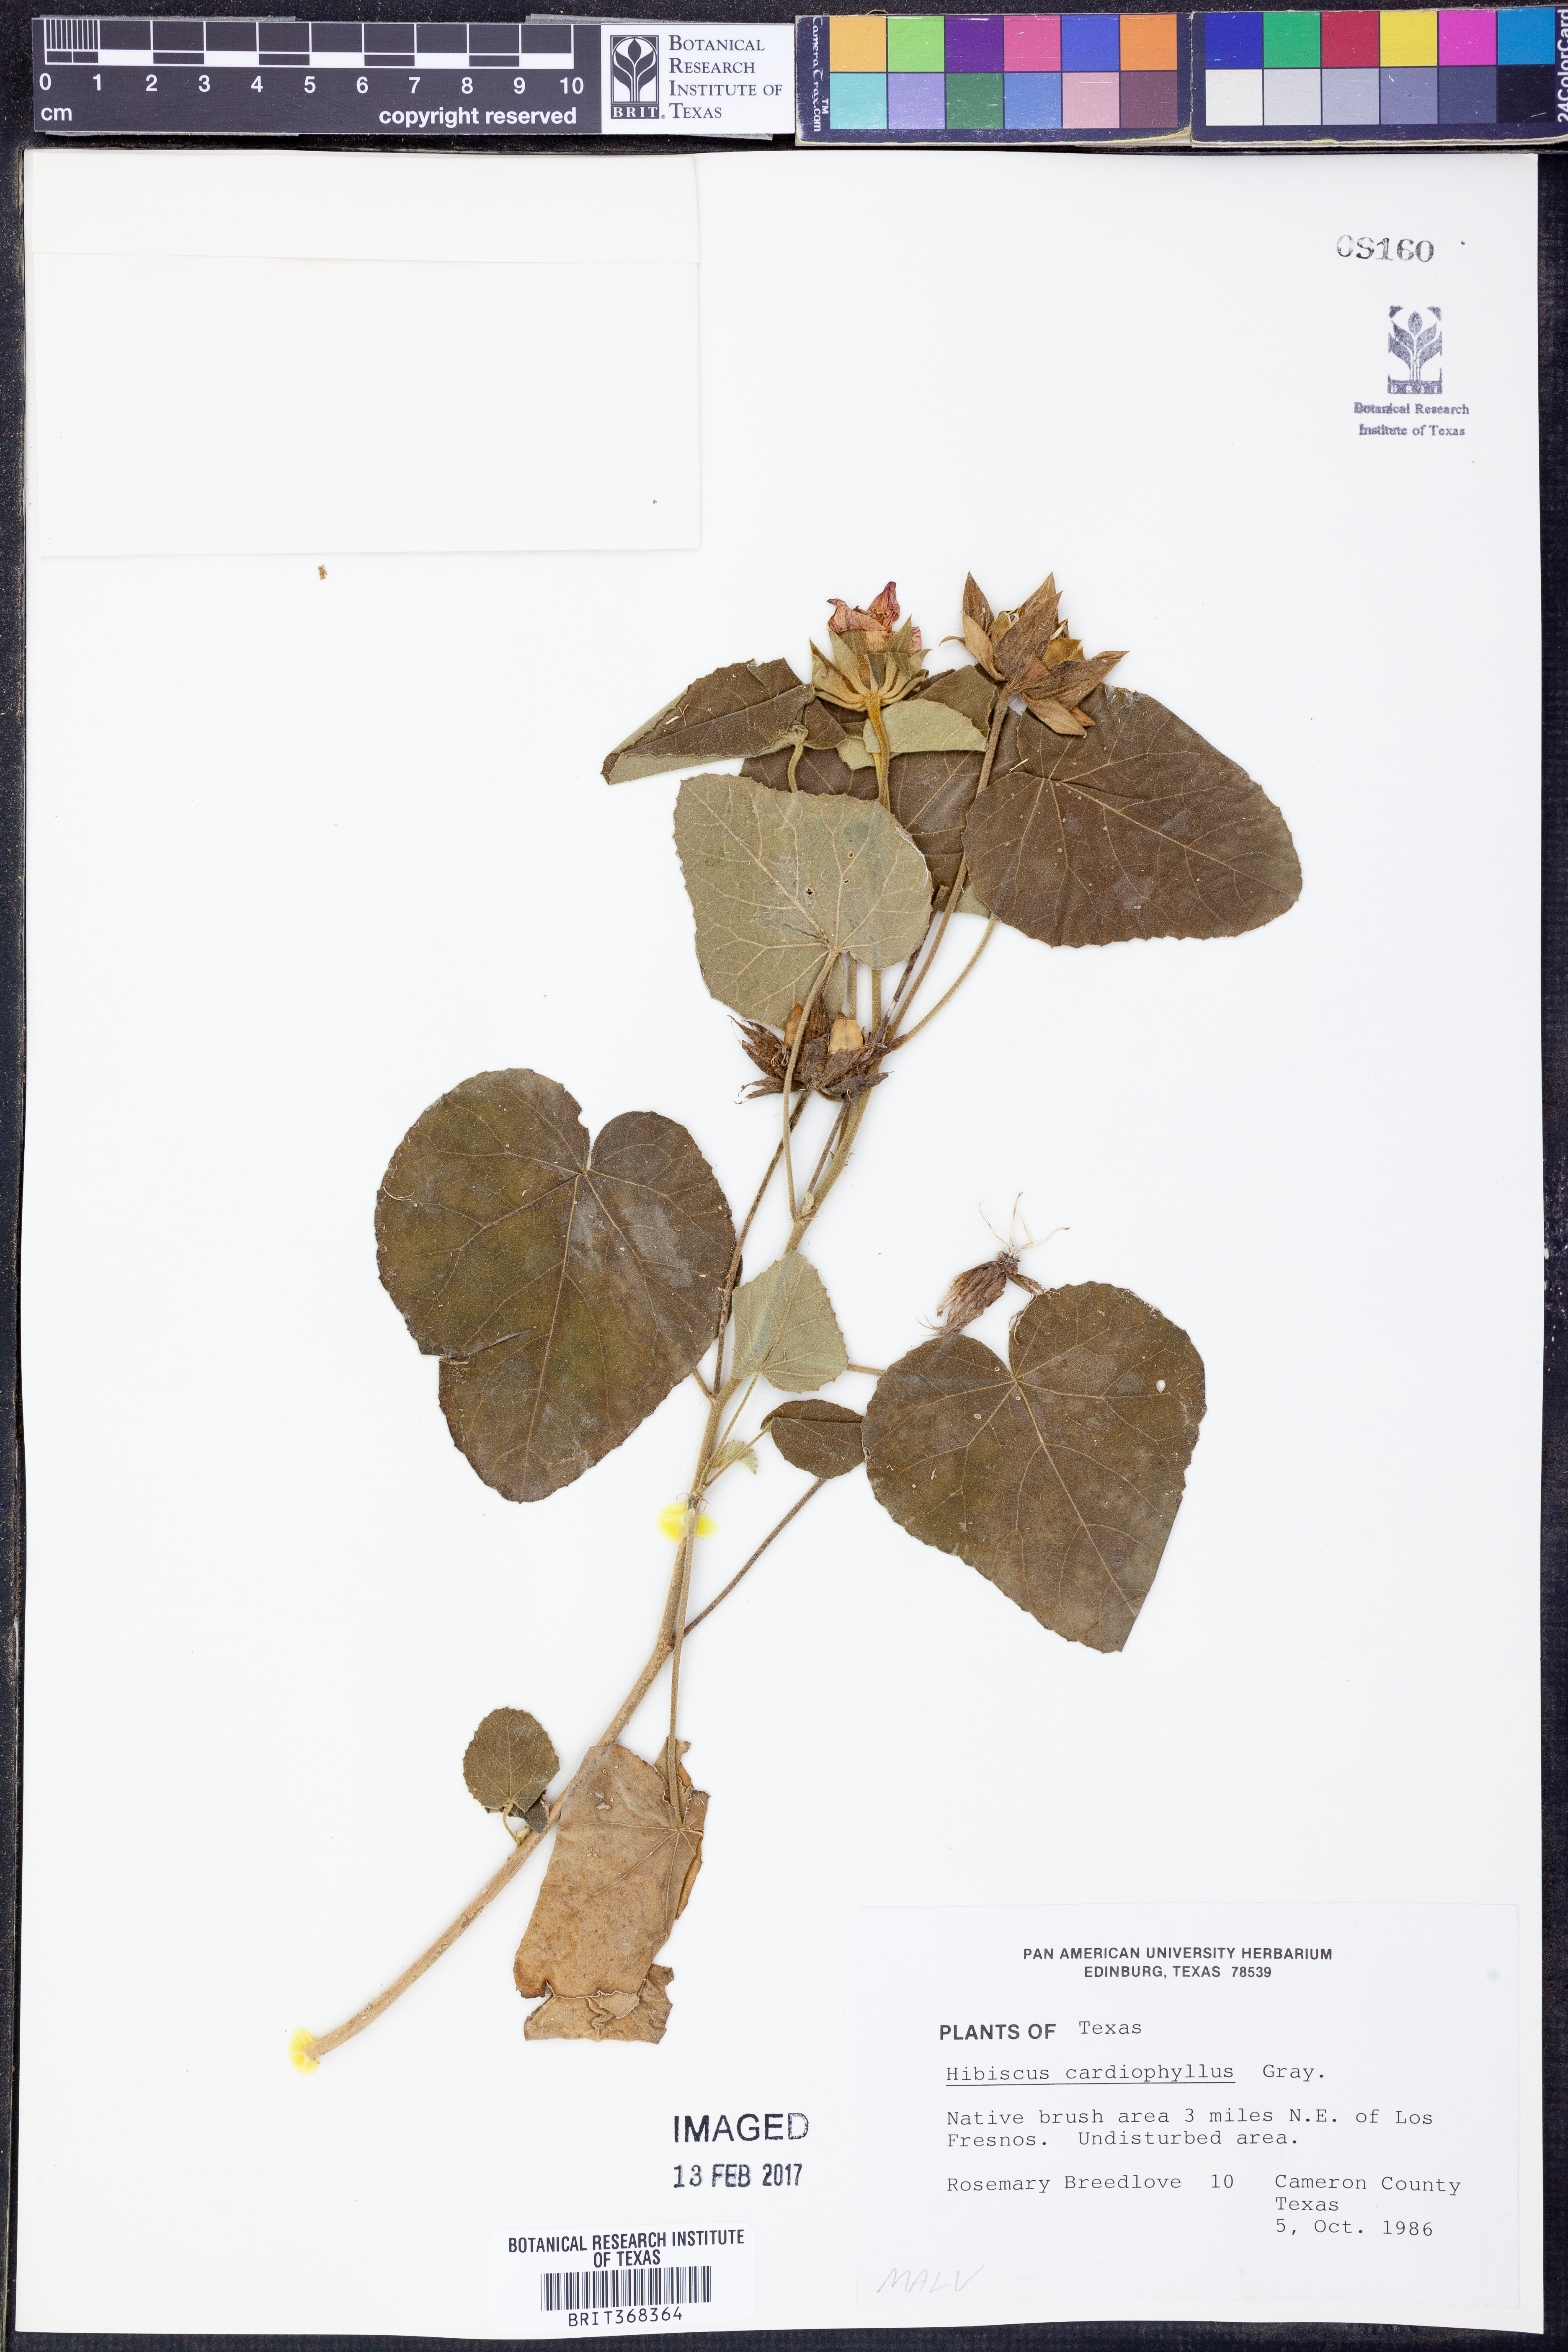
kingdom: Plantae
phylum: Tracheophyta
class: Magnoliopsida
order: Malvales
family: Malvaceae
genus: Abelmoschus
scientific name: Abelmoschus moschatus
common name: Musk okra
